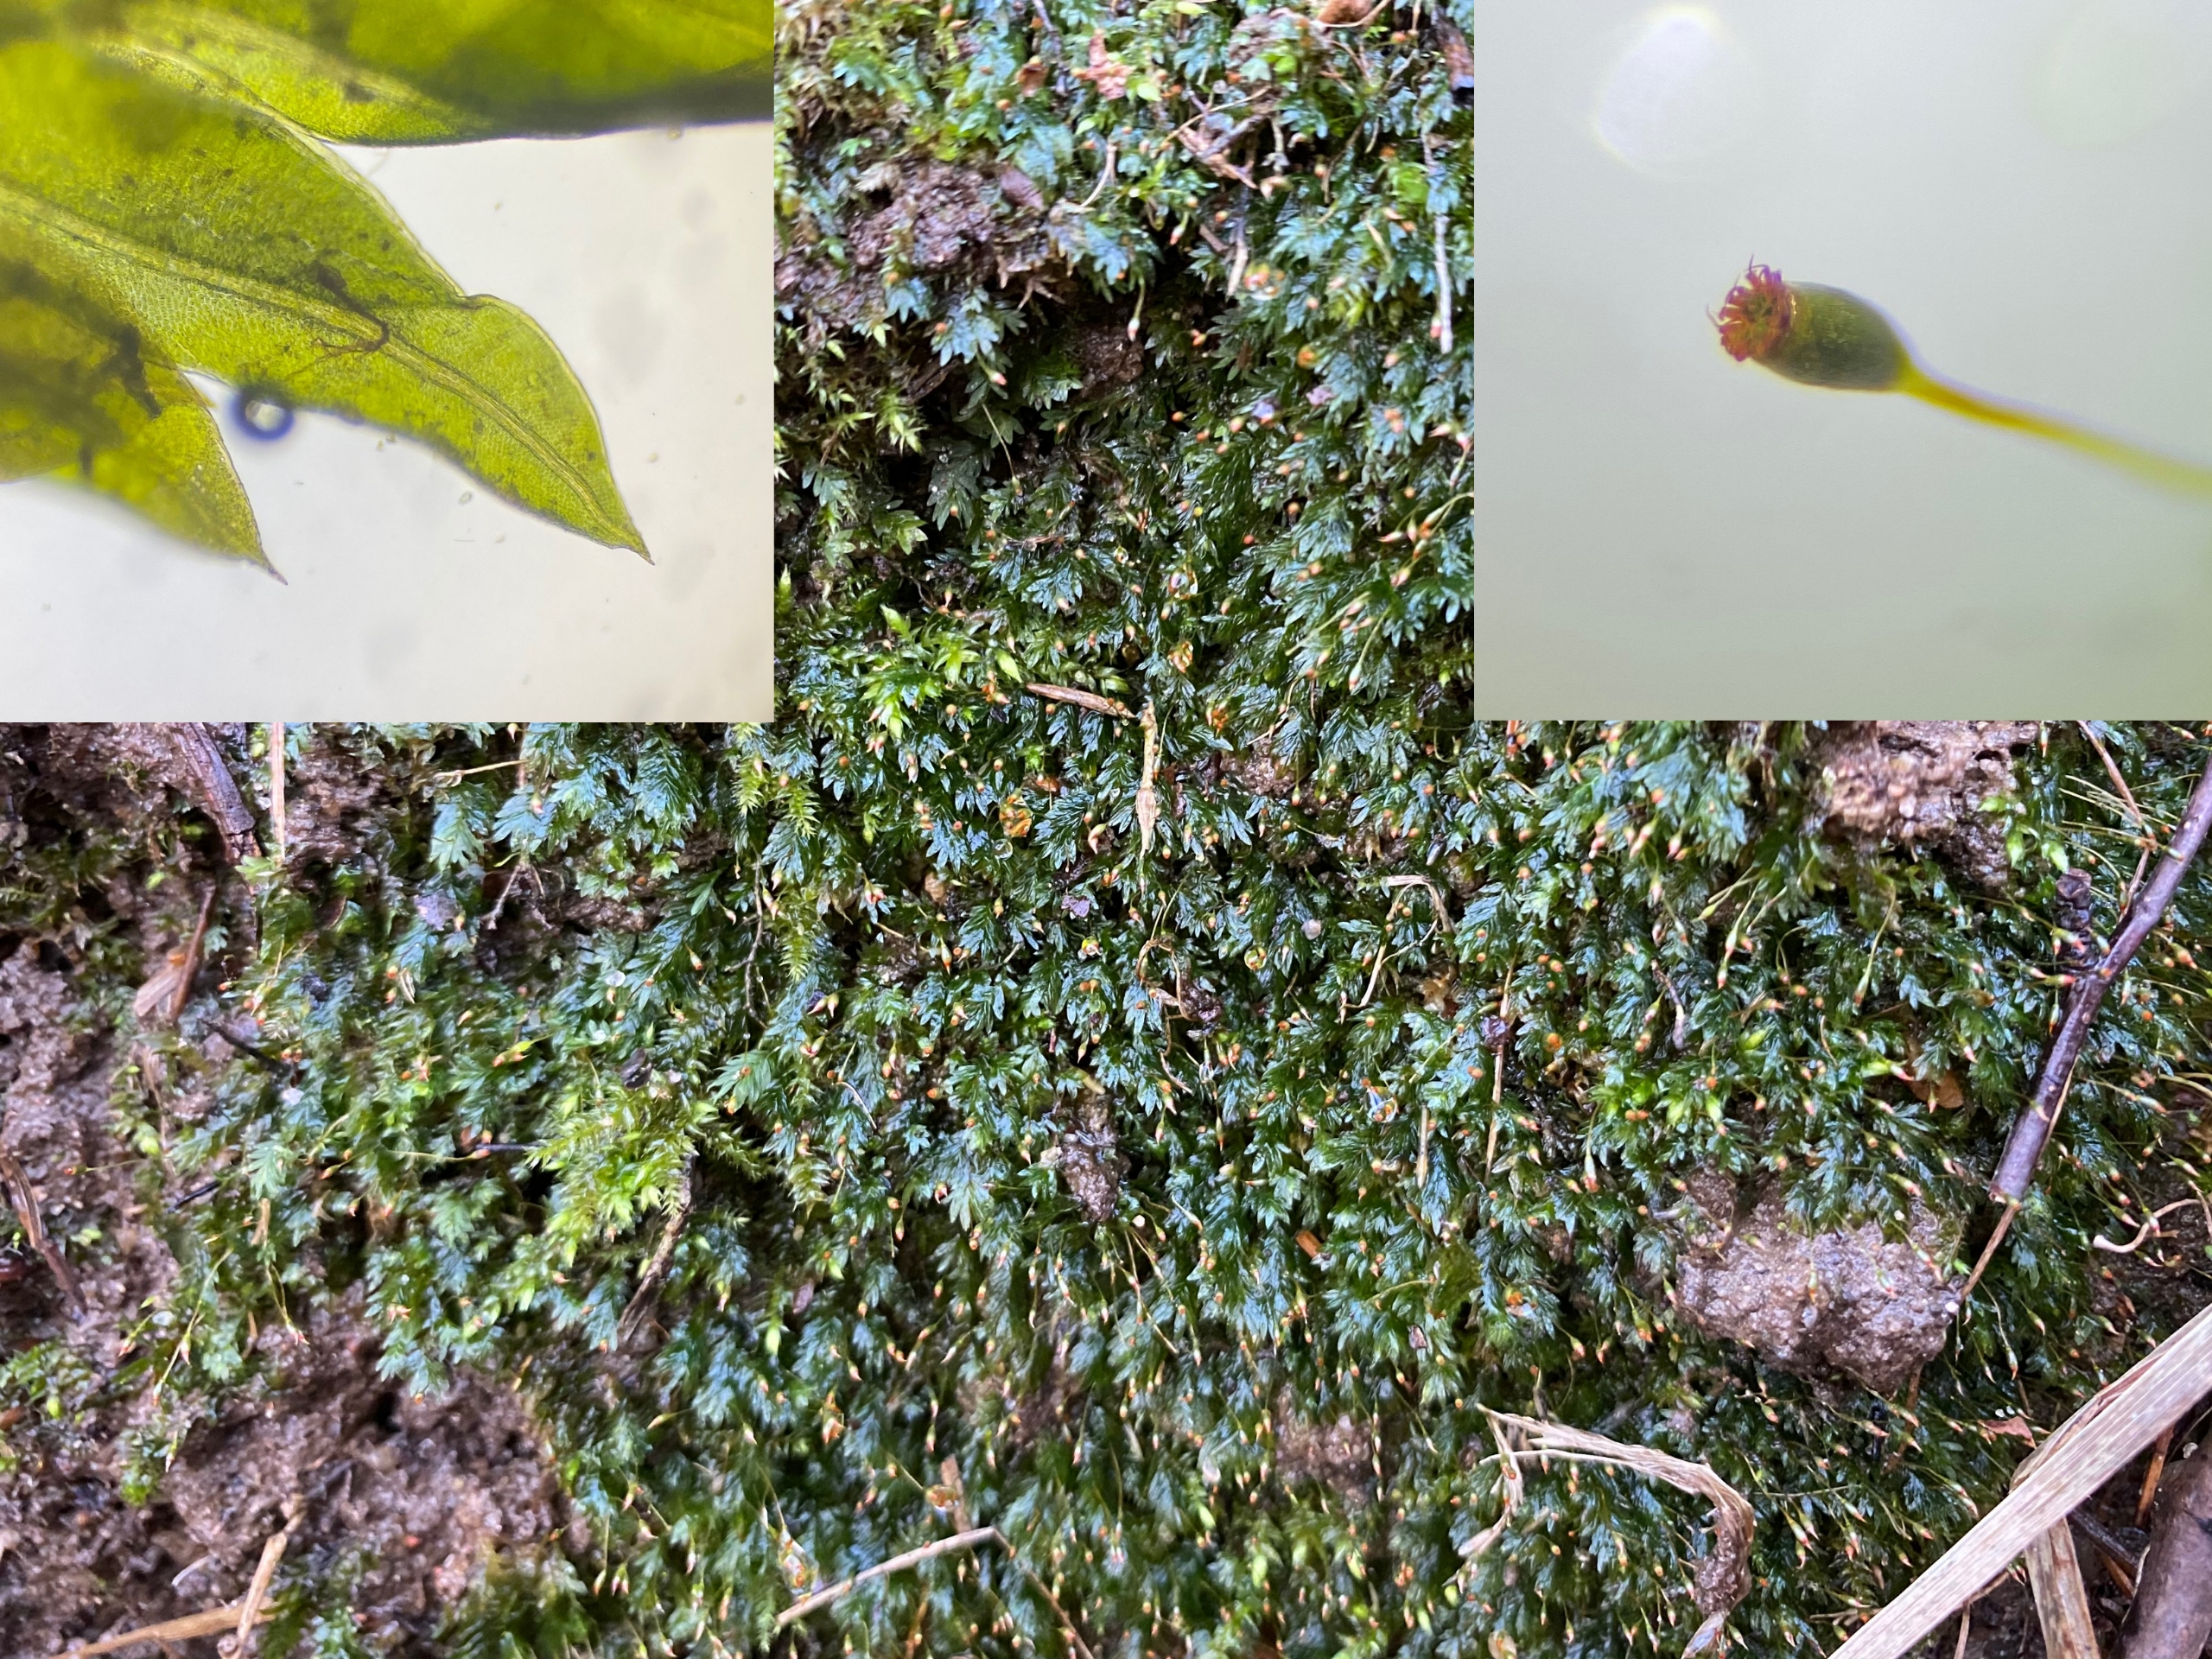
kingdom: Plantae
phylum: Bryophyta
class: Bryopsida
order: Dicranales
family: Fissidentaceae
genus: Fissidens
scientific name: Fissidens bryoides
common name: Top-rademos
